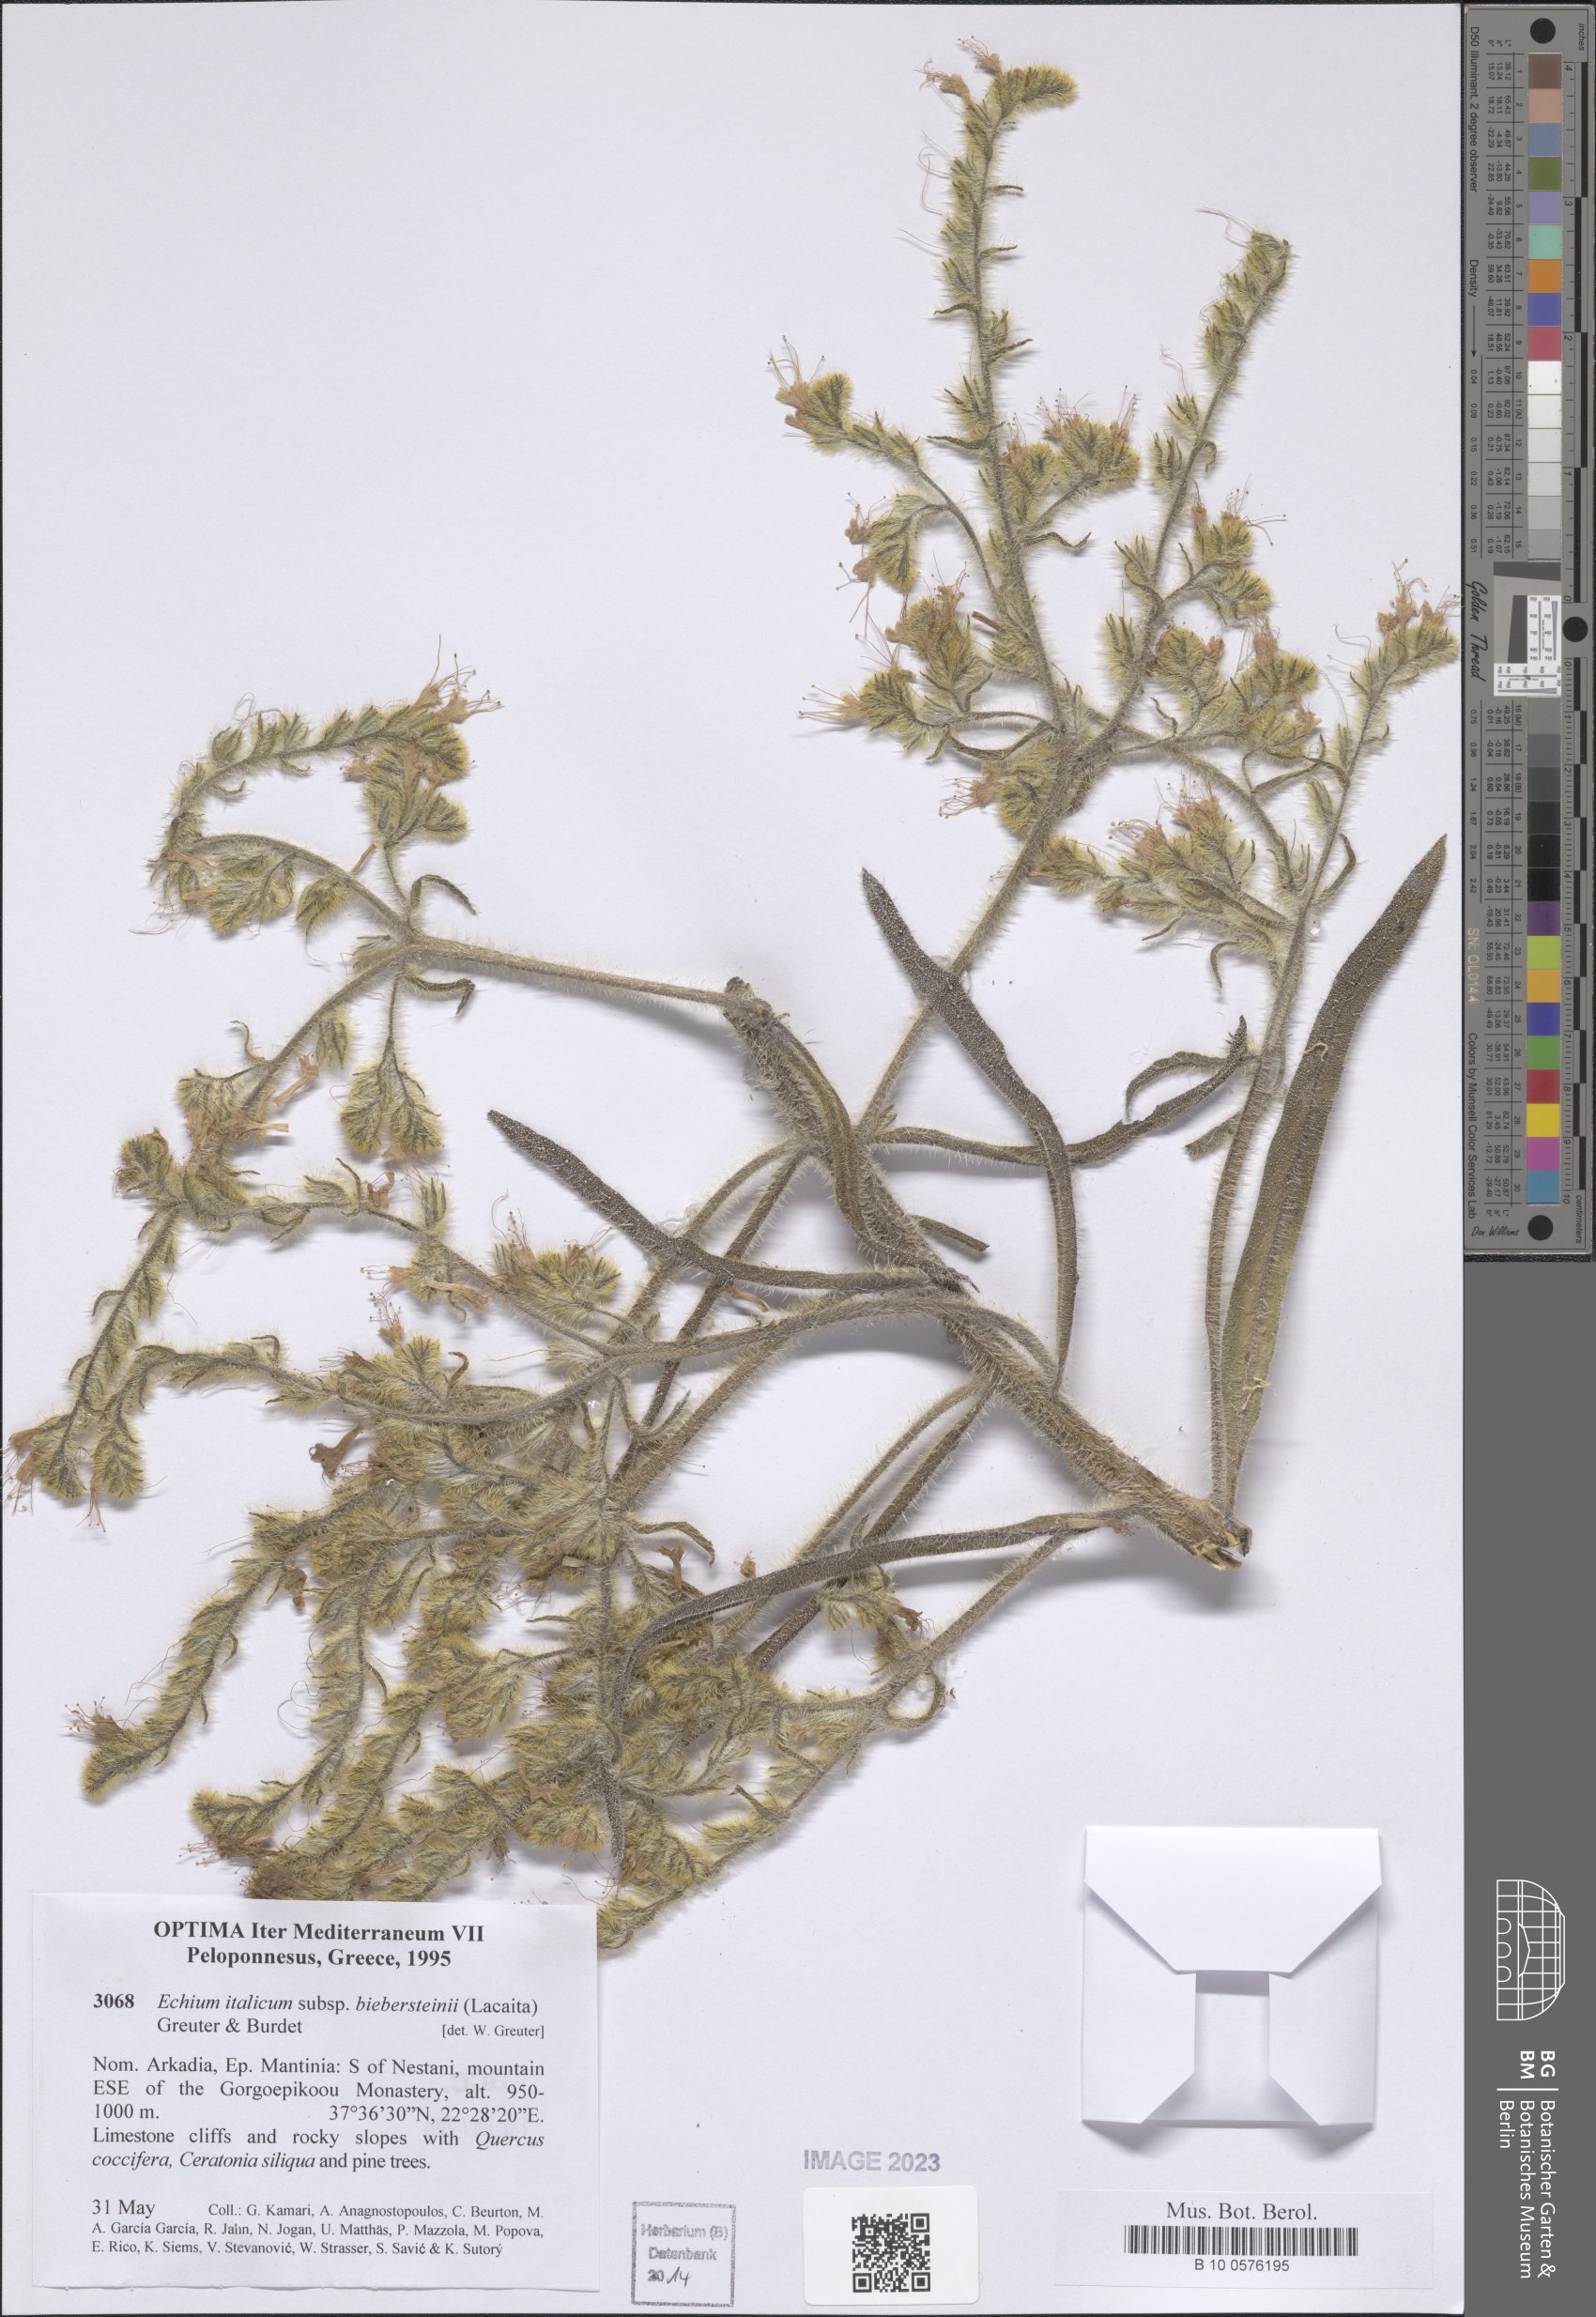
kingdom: Plantae
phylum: Tracheophyta
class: Magnoliopsida
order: Boraginales
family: Boraginaceae
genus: Echium
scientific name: Echium italicum
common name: Italian viper's bugloss
